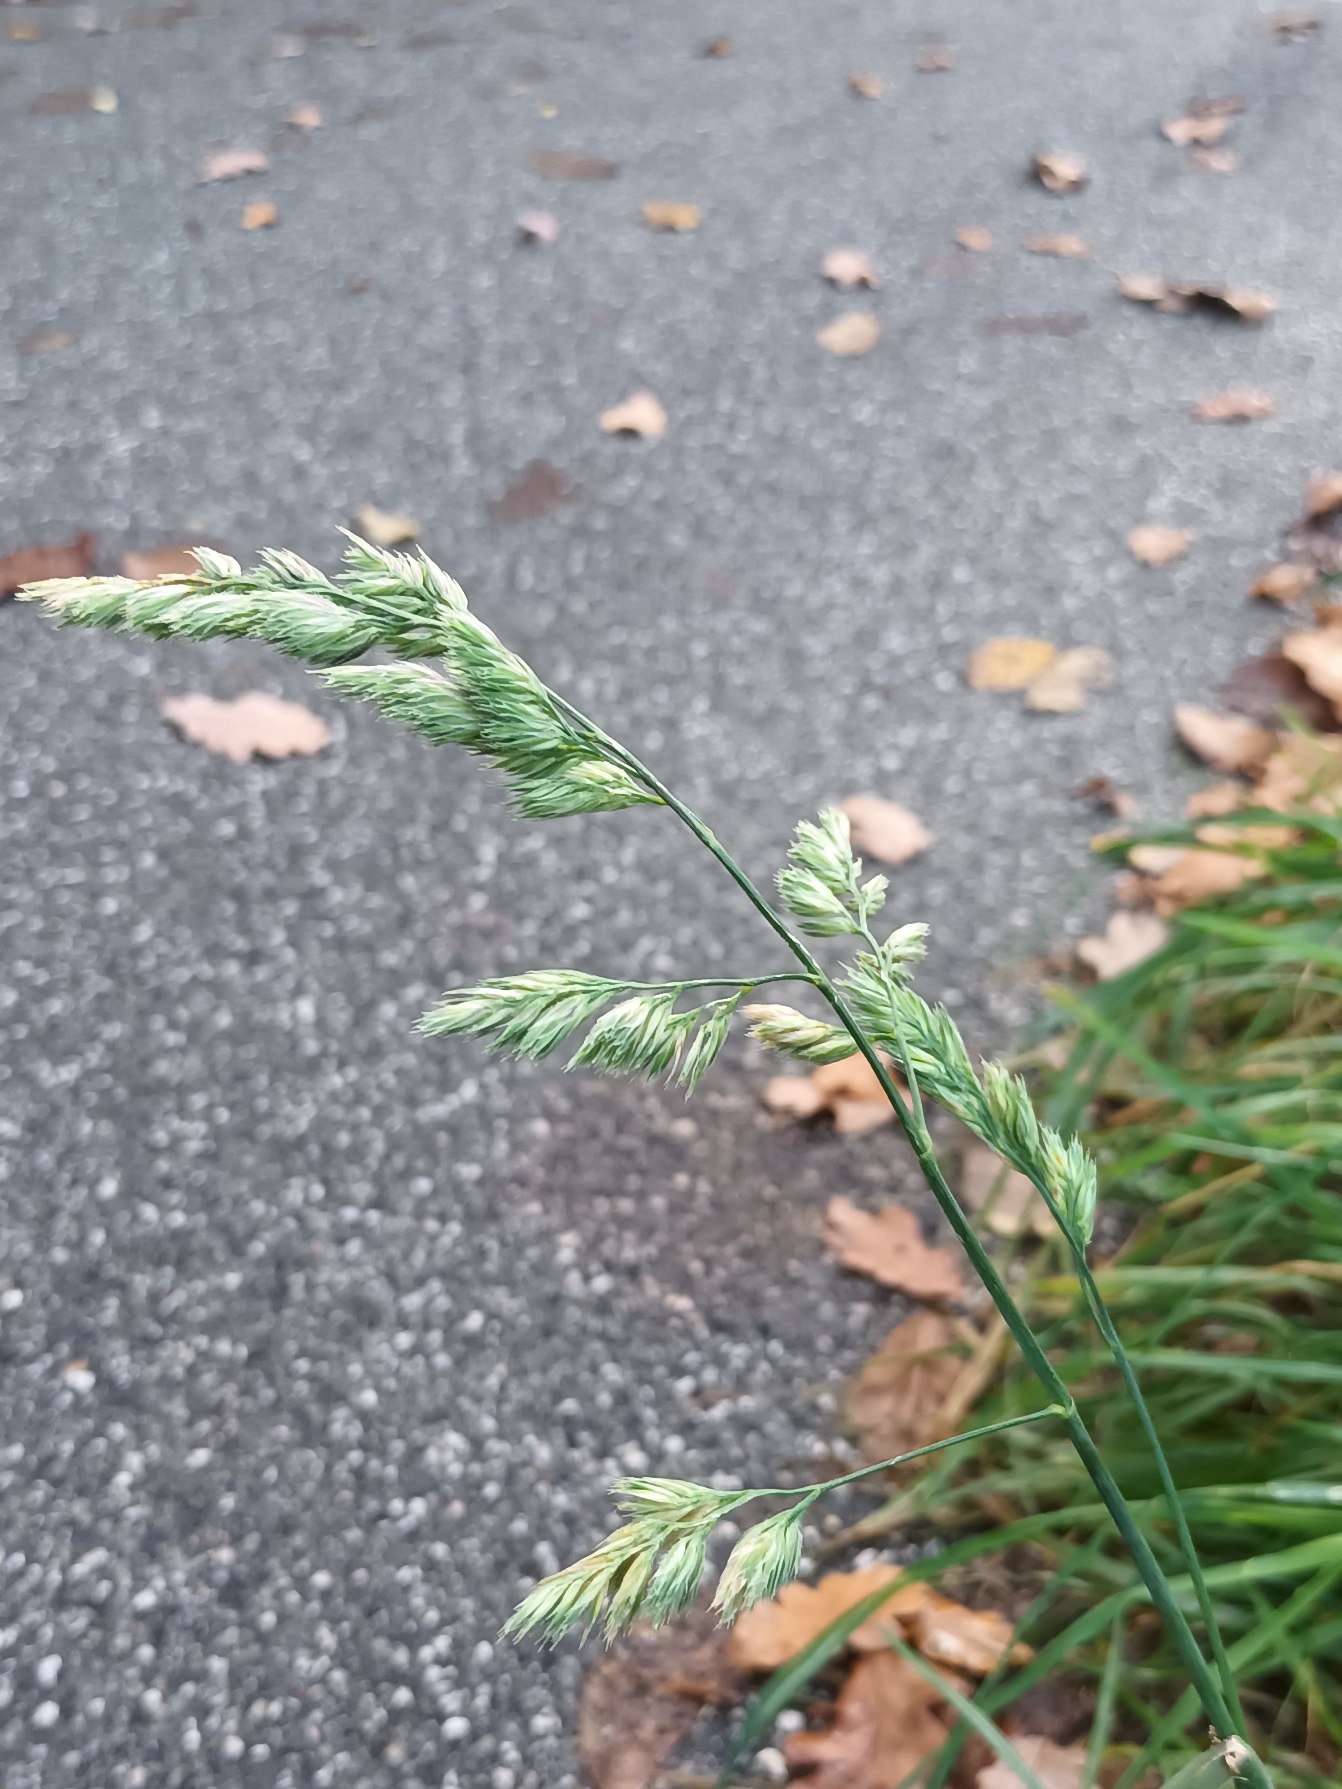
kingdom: Plantae
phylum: Tracheophyta
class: Liliopsida
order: Poales
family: Poaceae
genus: Dactylis
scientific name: Dactylis glomerata
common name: Almindelig hundegræs
